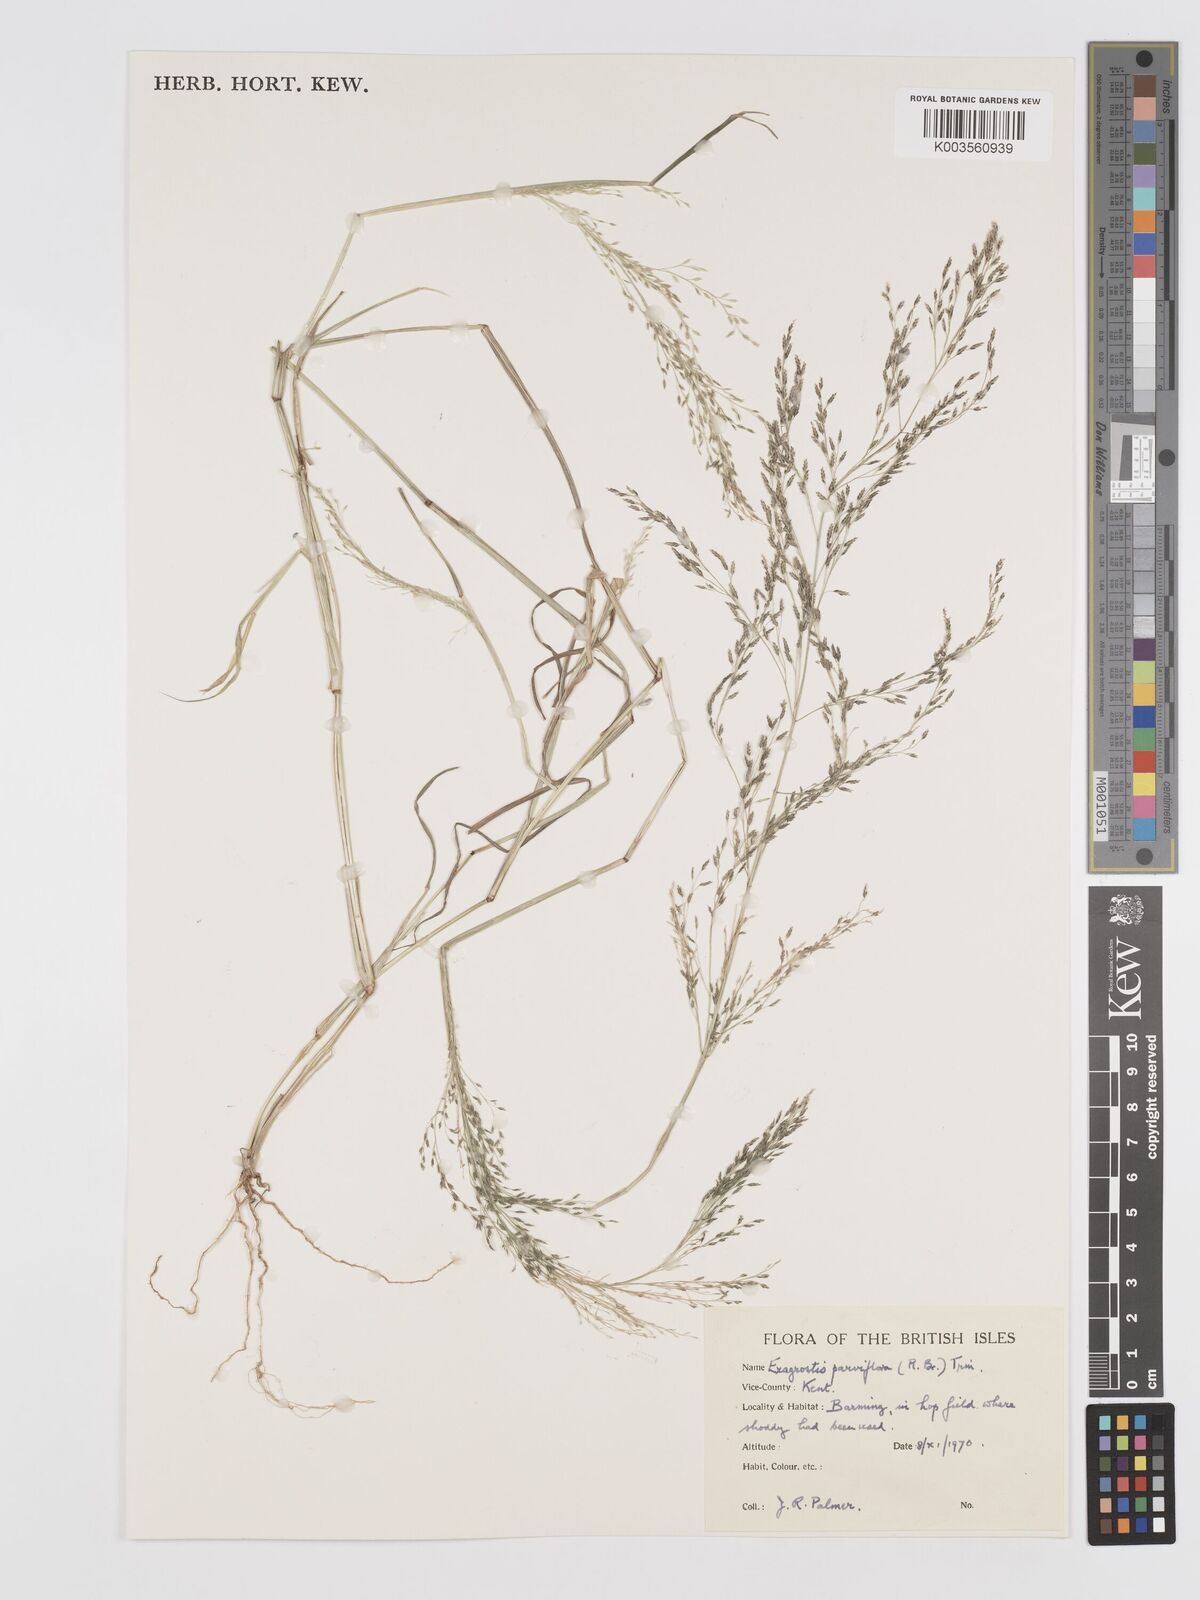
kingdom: Plantae
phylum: Tracheophyta
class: Liliopsida
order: Poales
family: Poaceae
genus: Eragrostis
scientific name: Eragrostis parviflora
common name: Weeping love-grass
